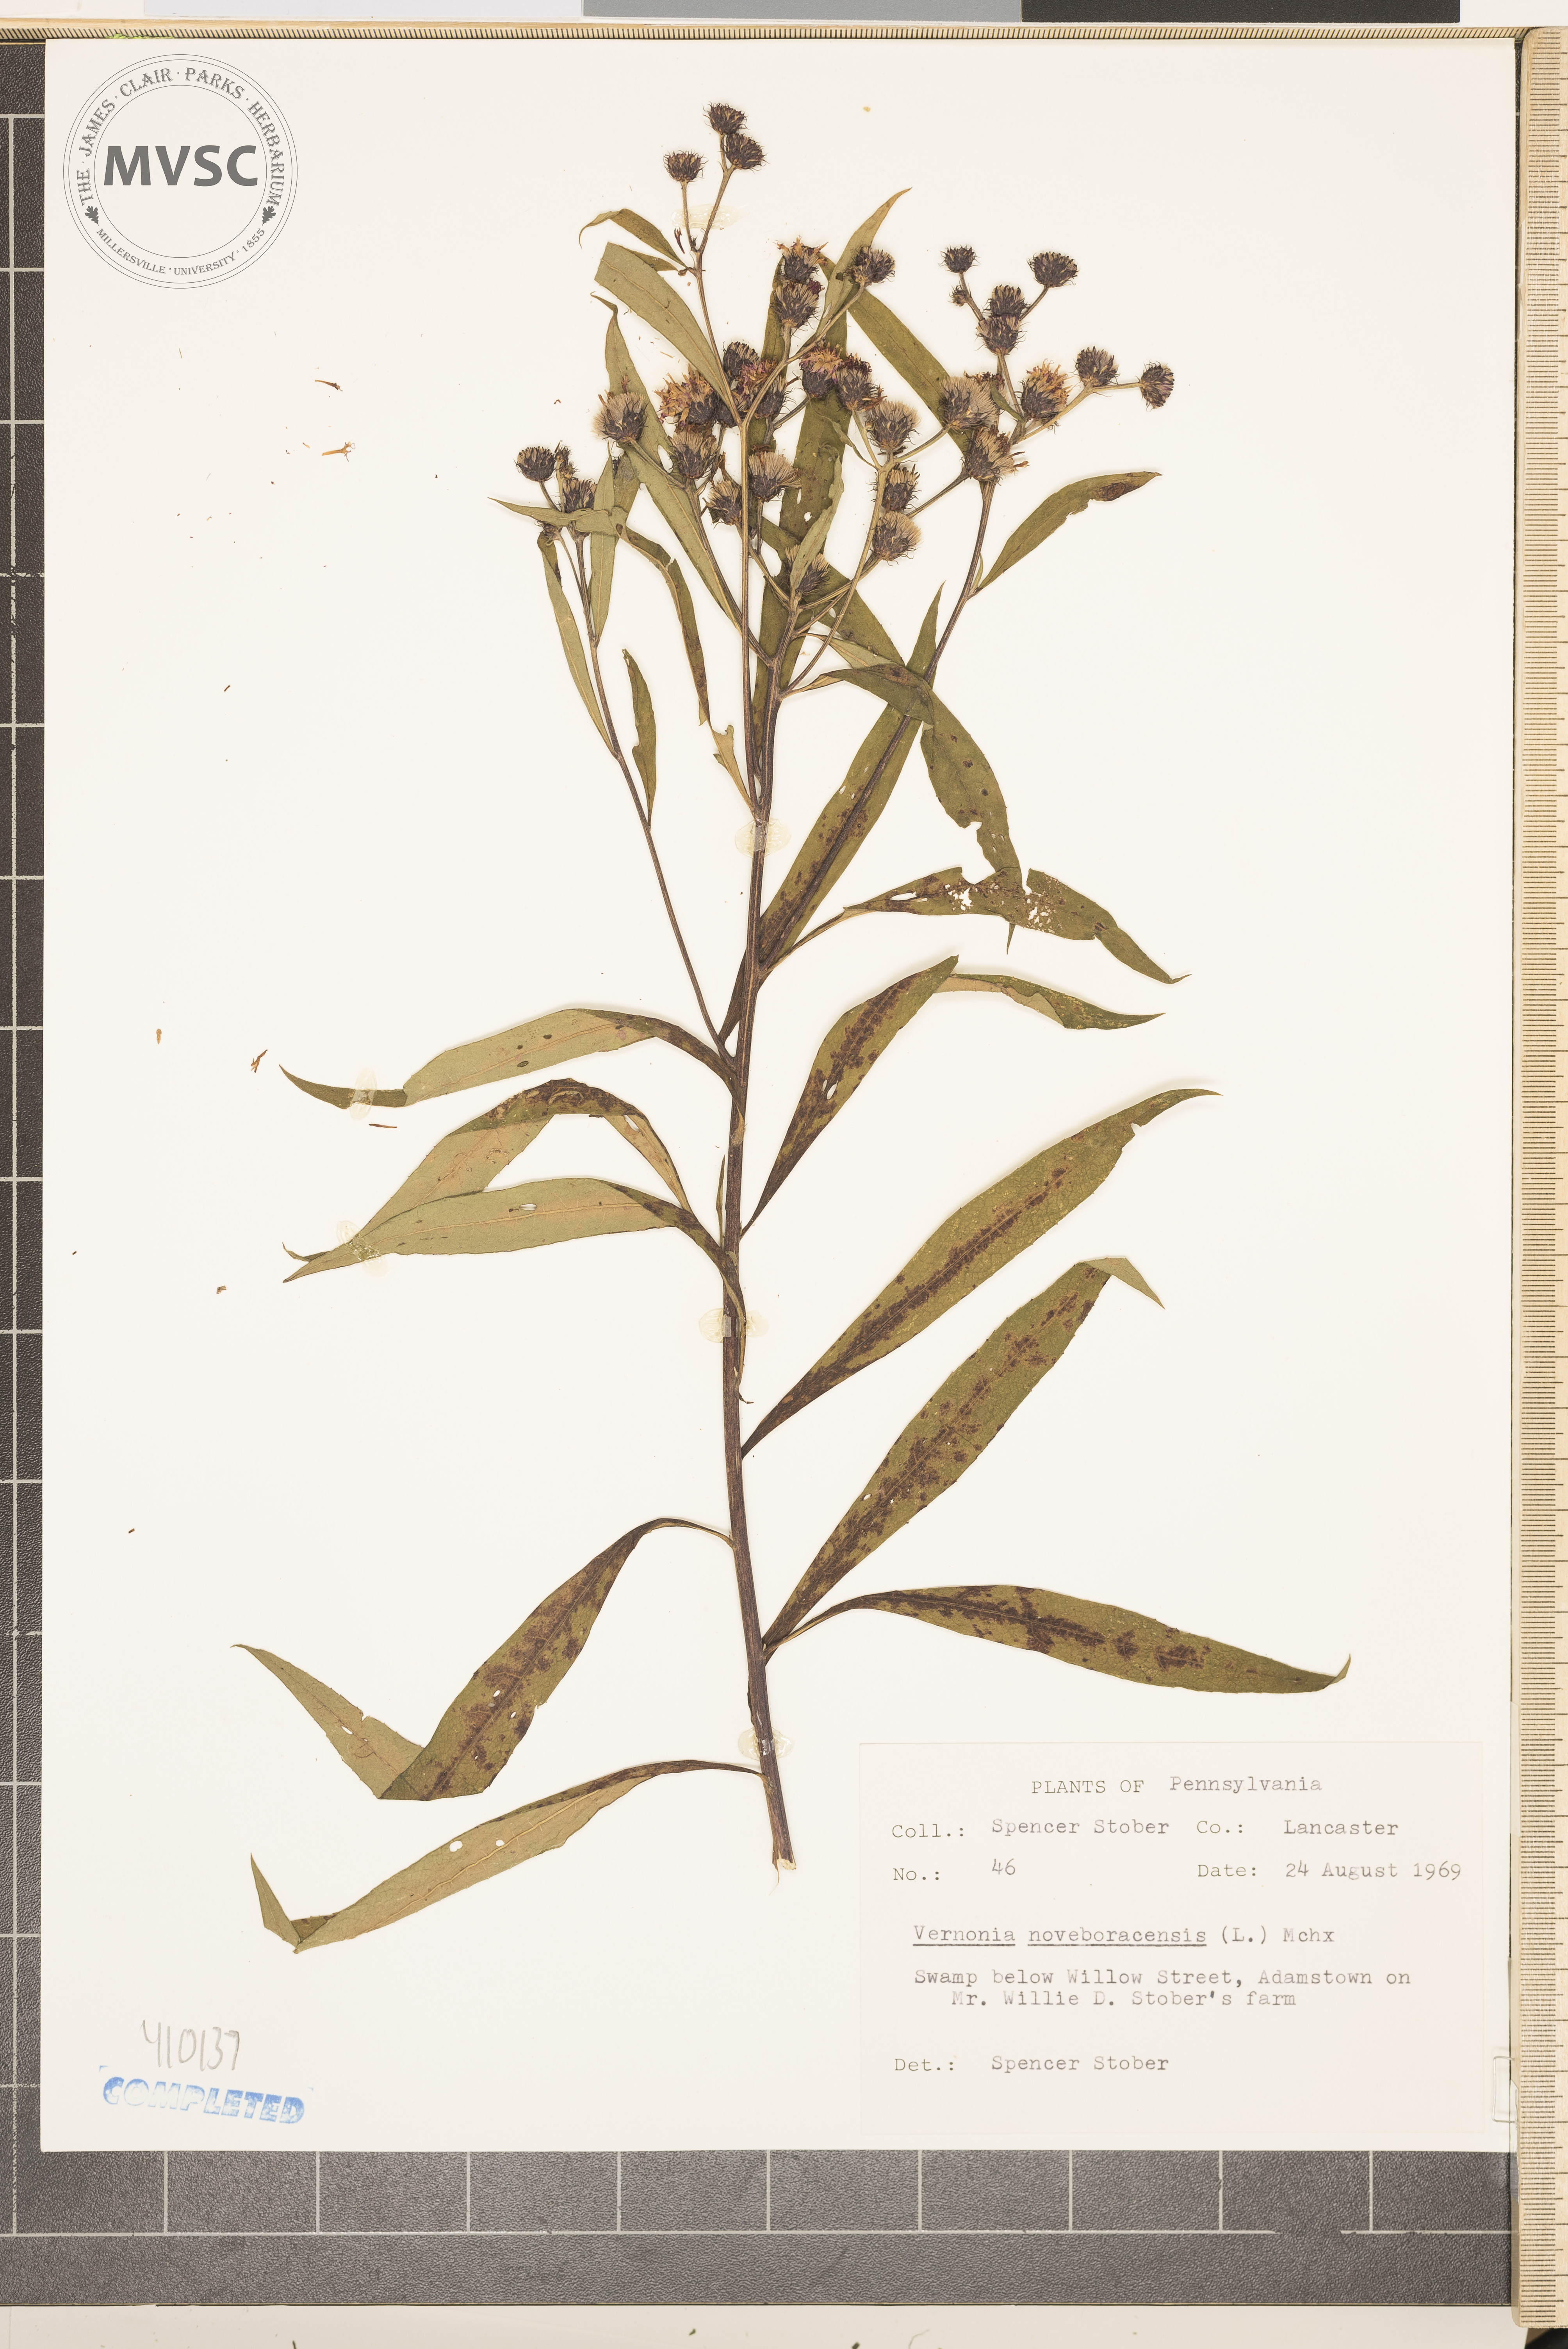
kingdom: Plantae
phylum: Tracheophyta
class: Magnoliopsida
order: Asterales
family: Asteraceae
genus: Vernonia
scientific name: Vernonia noveboracensis
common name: New york ironweed
